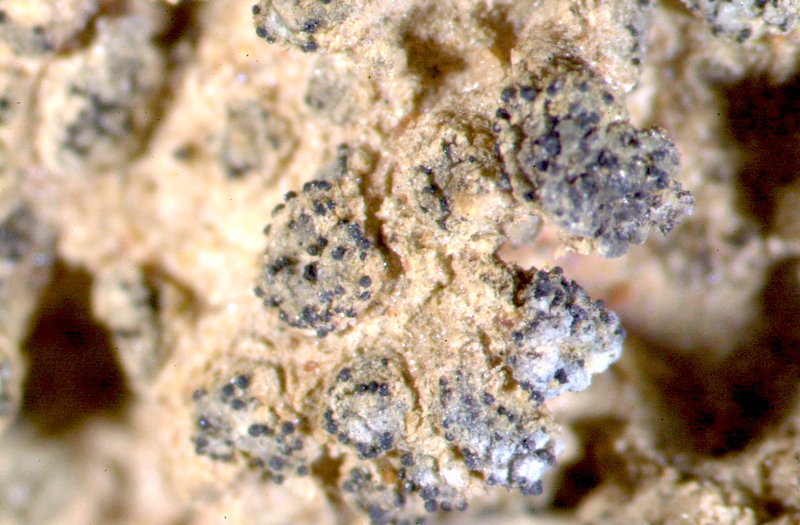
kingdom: Fungi
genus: Lichenicolous
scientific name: Lichenicolous fungus
